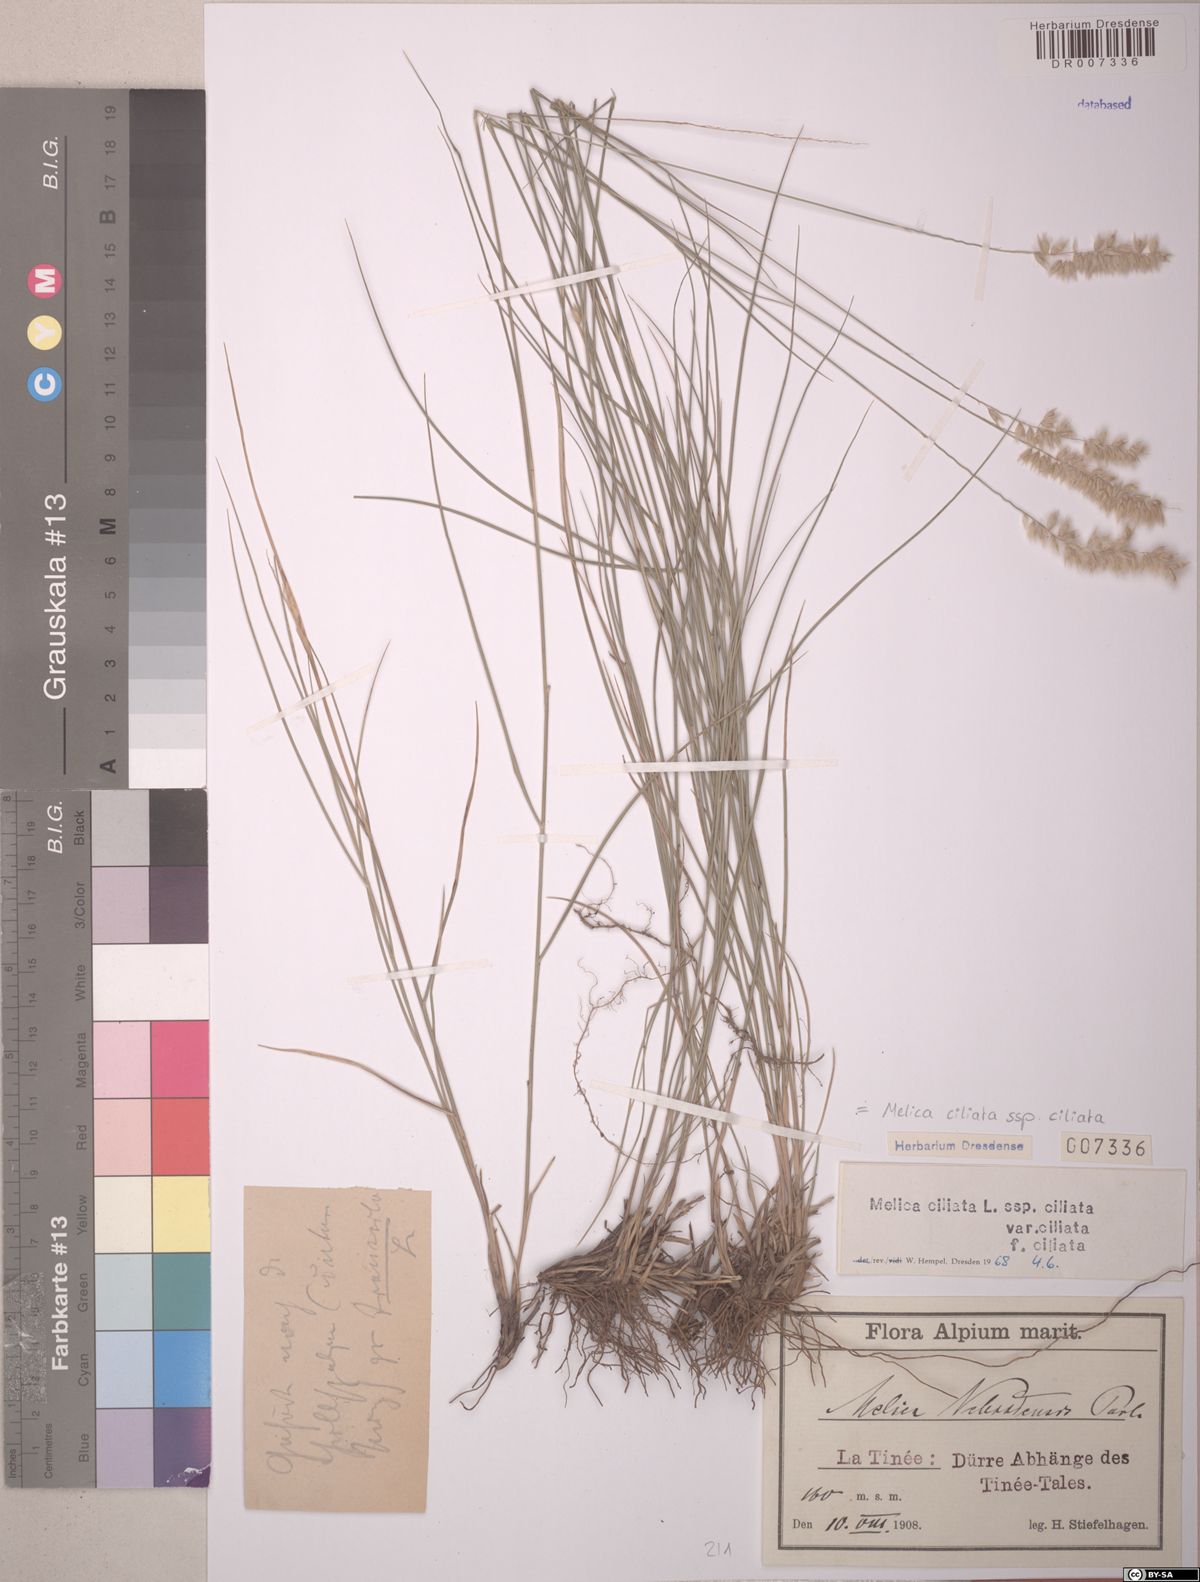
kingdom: Plantae
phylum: Tracheophyta
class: Liliopsida
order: Poales
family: Poaceae
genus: Melica
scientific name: Melica ciliata
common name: Hairy melicgrass
